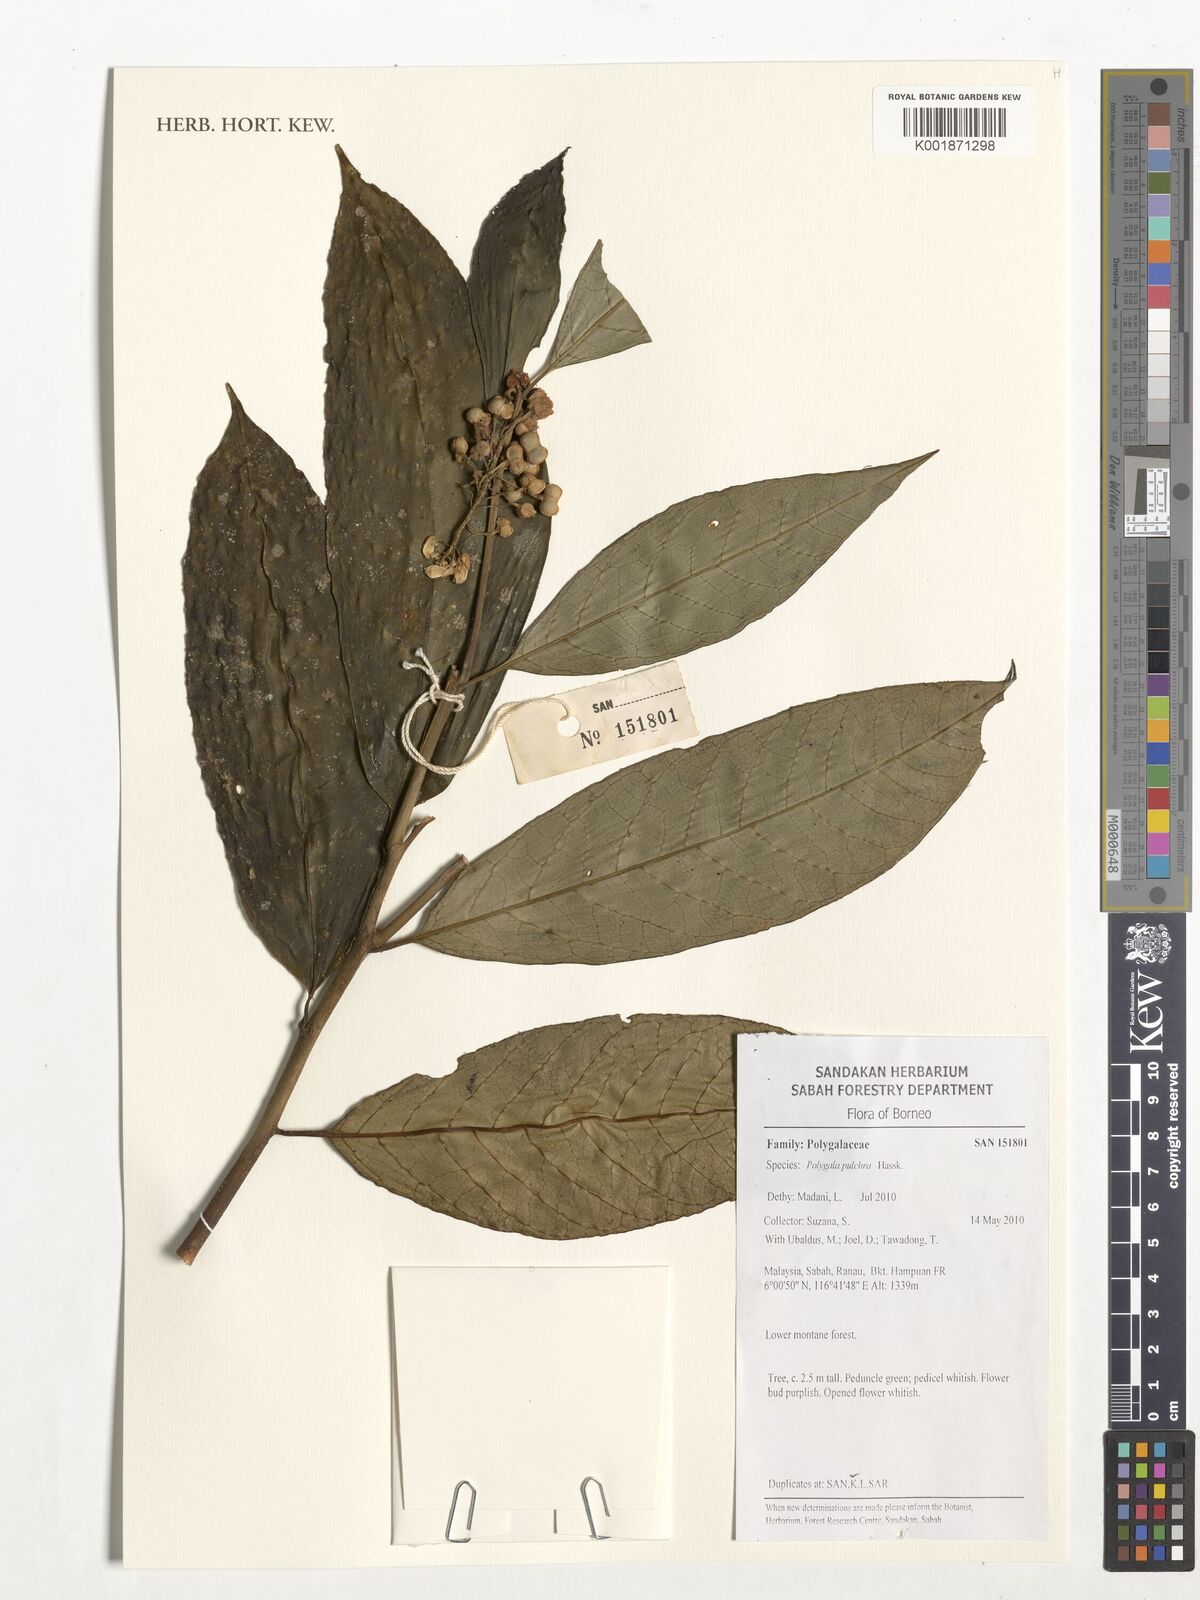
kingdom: Plantae
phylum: Tracheophyta
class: Magnoliopsida
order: Fabales
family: Polygalaceae
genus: Polygala
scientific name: Polygala venenosa
